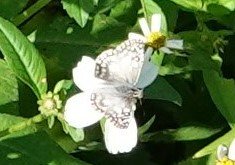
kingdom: Animalia
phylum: Arthropoda
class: Insecta
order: Lepidoptera
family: Hesperiidae
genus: Pyrgus
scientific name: Pyrgus communis
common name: White Checkered-Skipper
